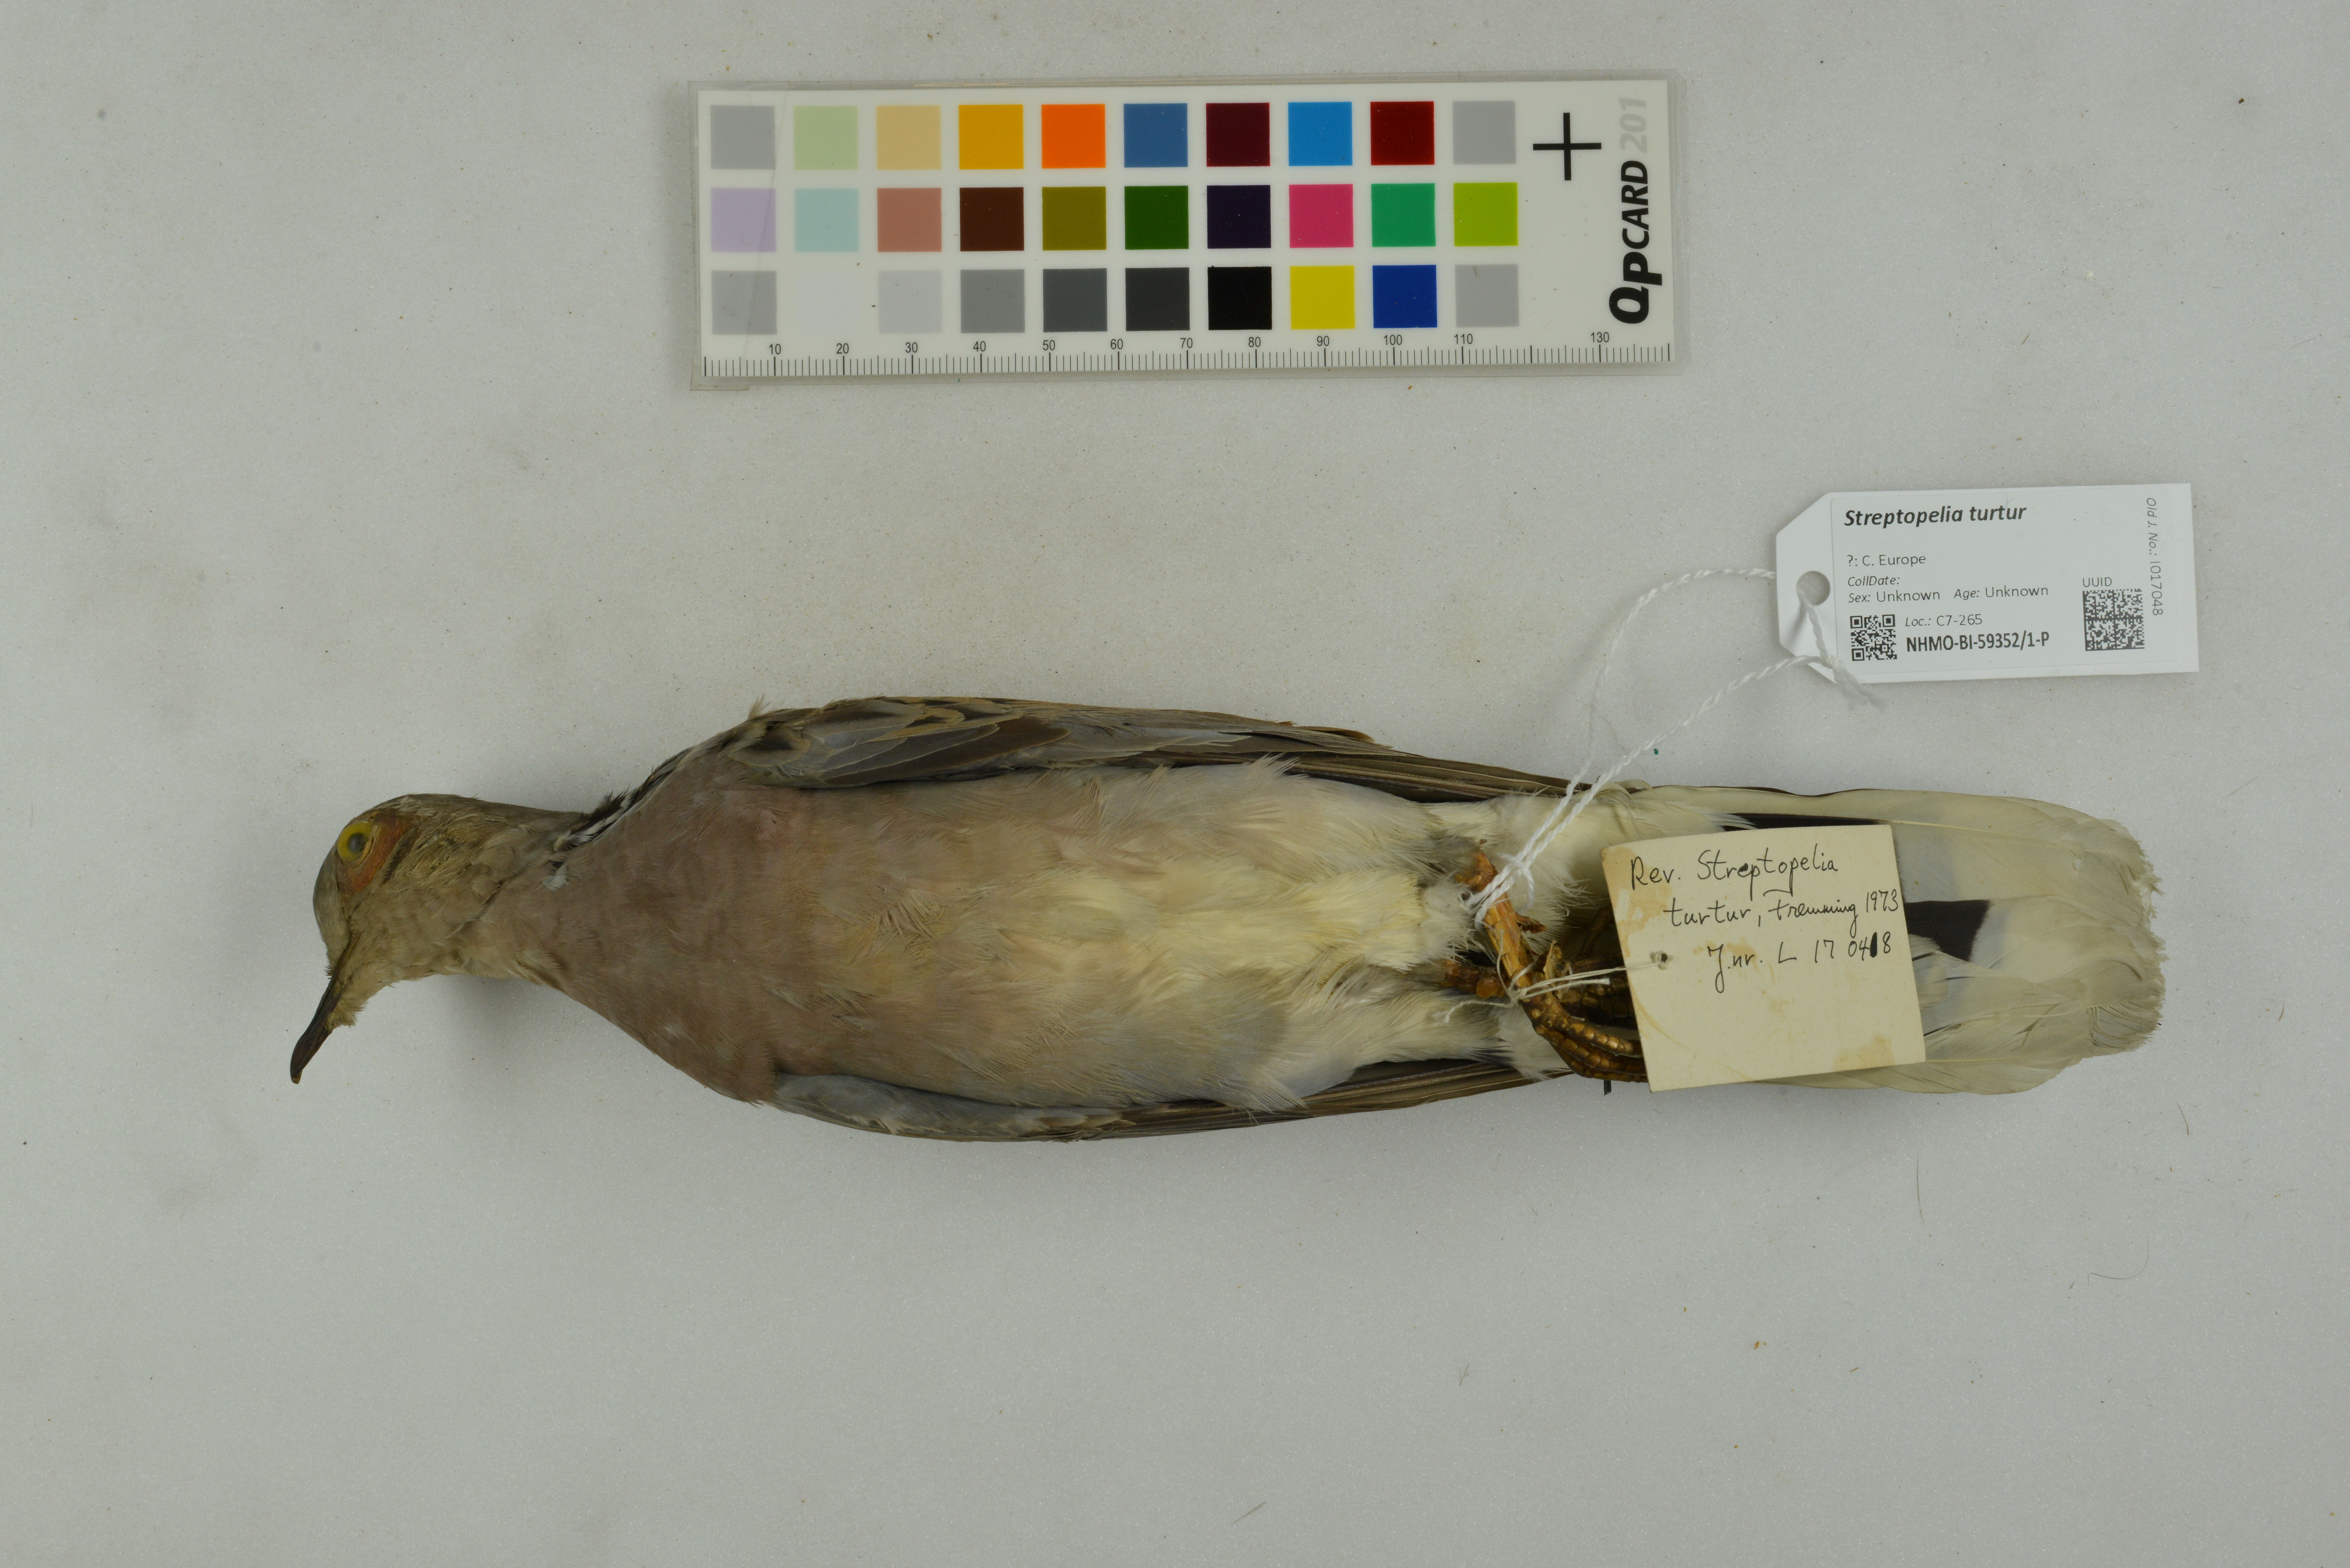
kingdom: Animalia
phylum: Chordata
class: Aves
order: Columbiformes
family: Columbidae
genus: Streptopelia
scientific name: Streptopelia turtur
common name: European turtle dove
